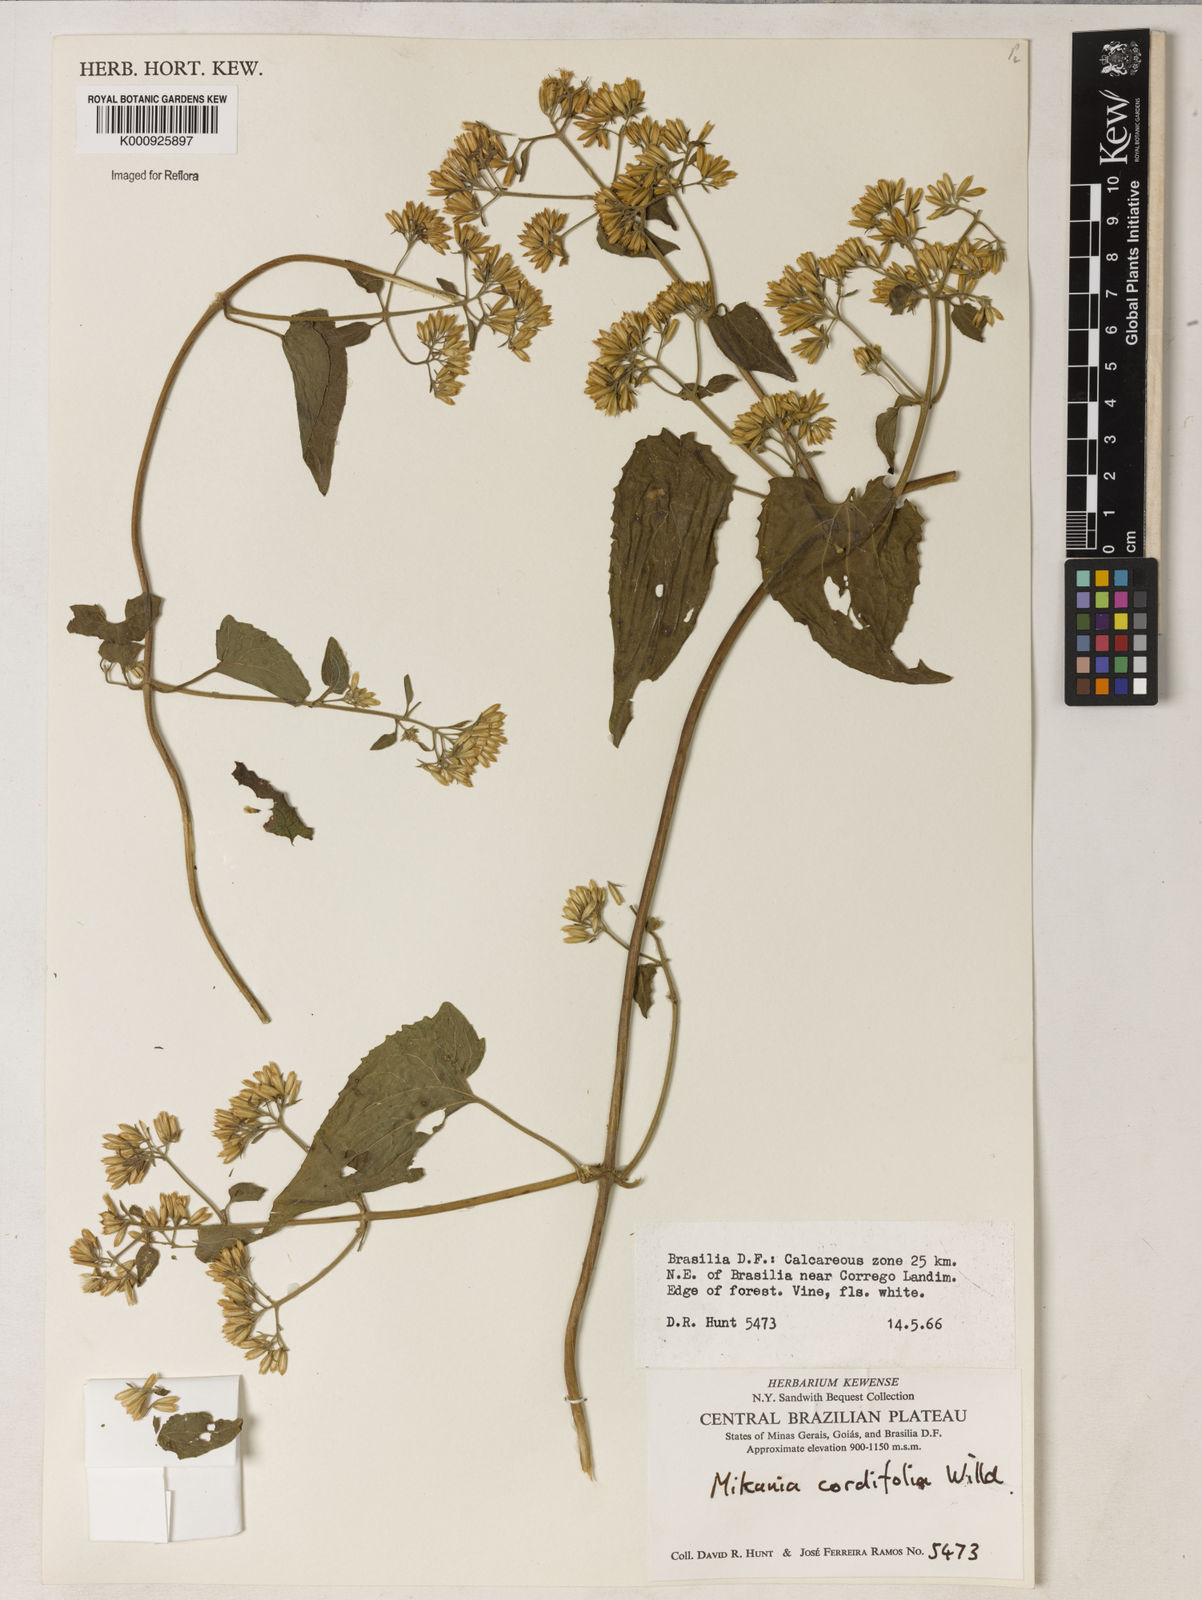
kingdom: Plantae
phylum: Tracheophyta
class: Magnoliopsida
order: Asterales
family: Asteraceae
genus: Mikania
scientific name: Mikania
